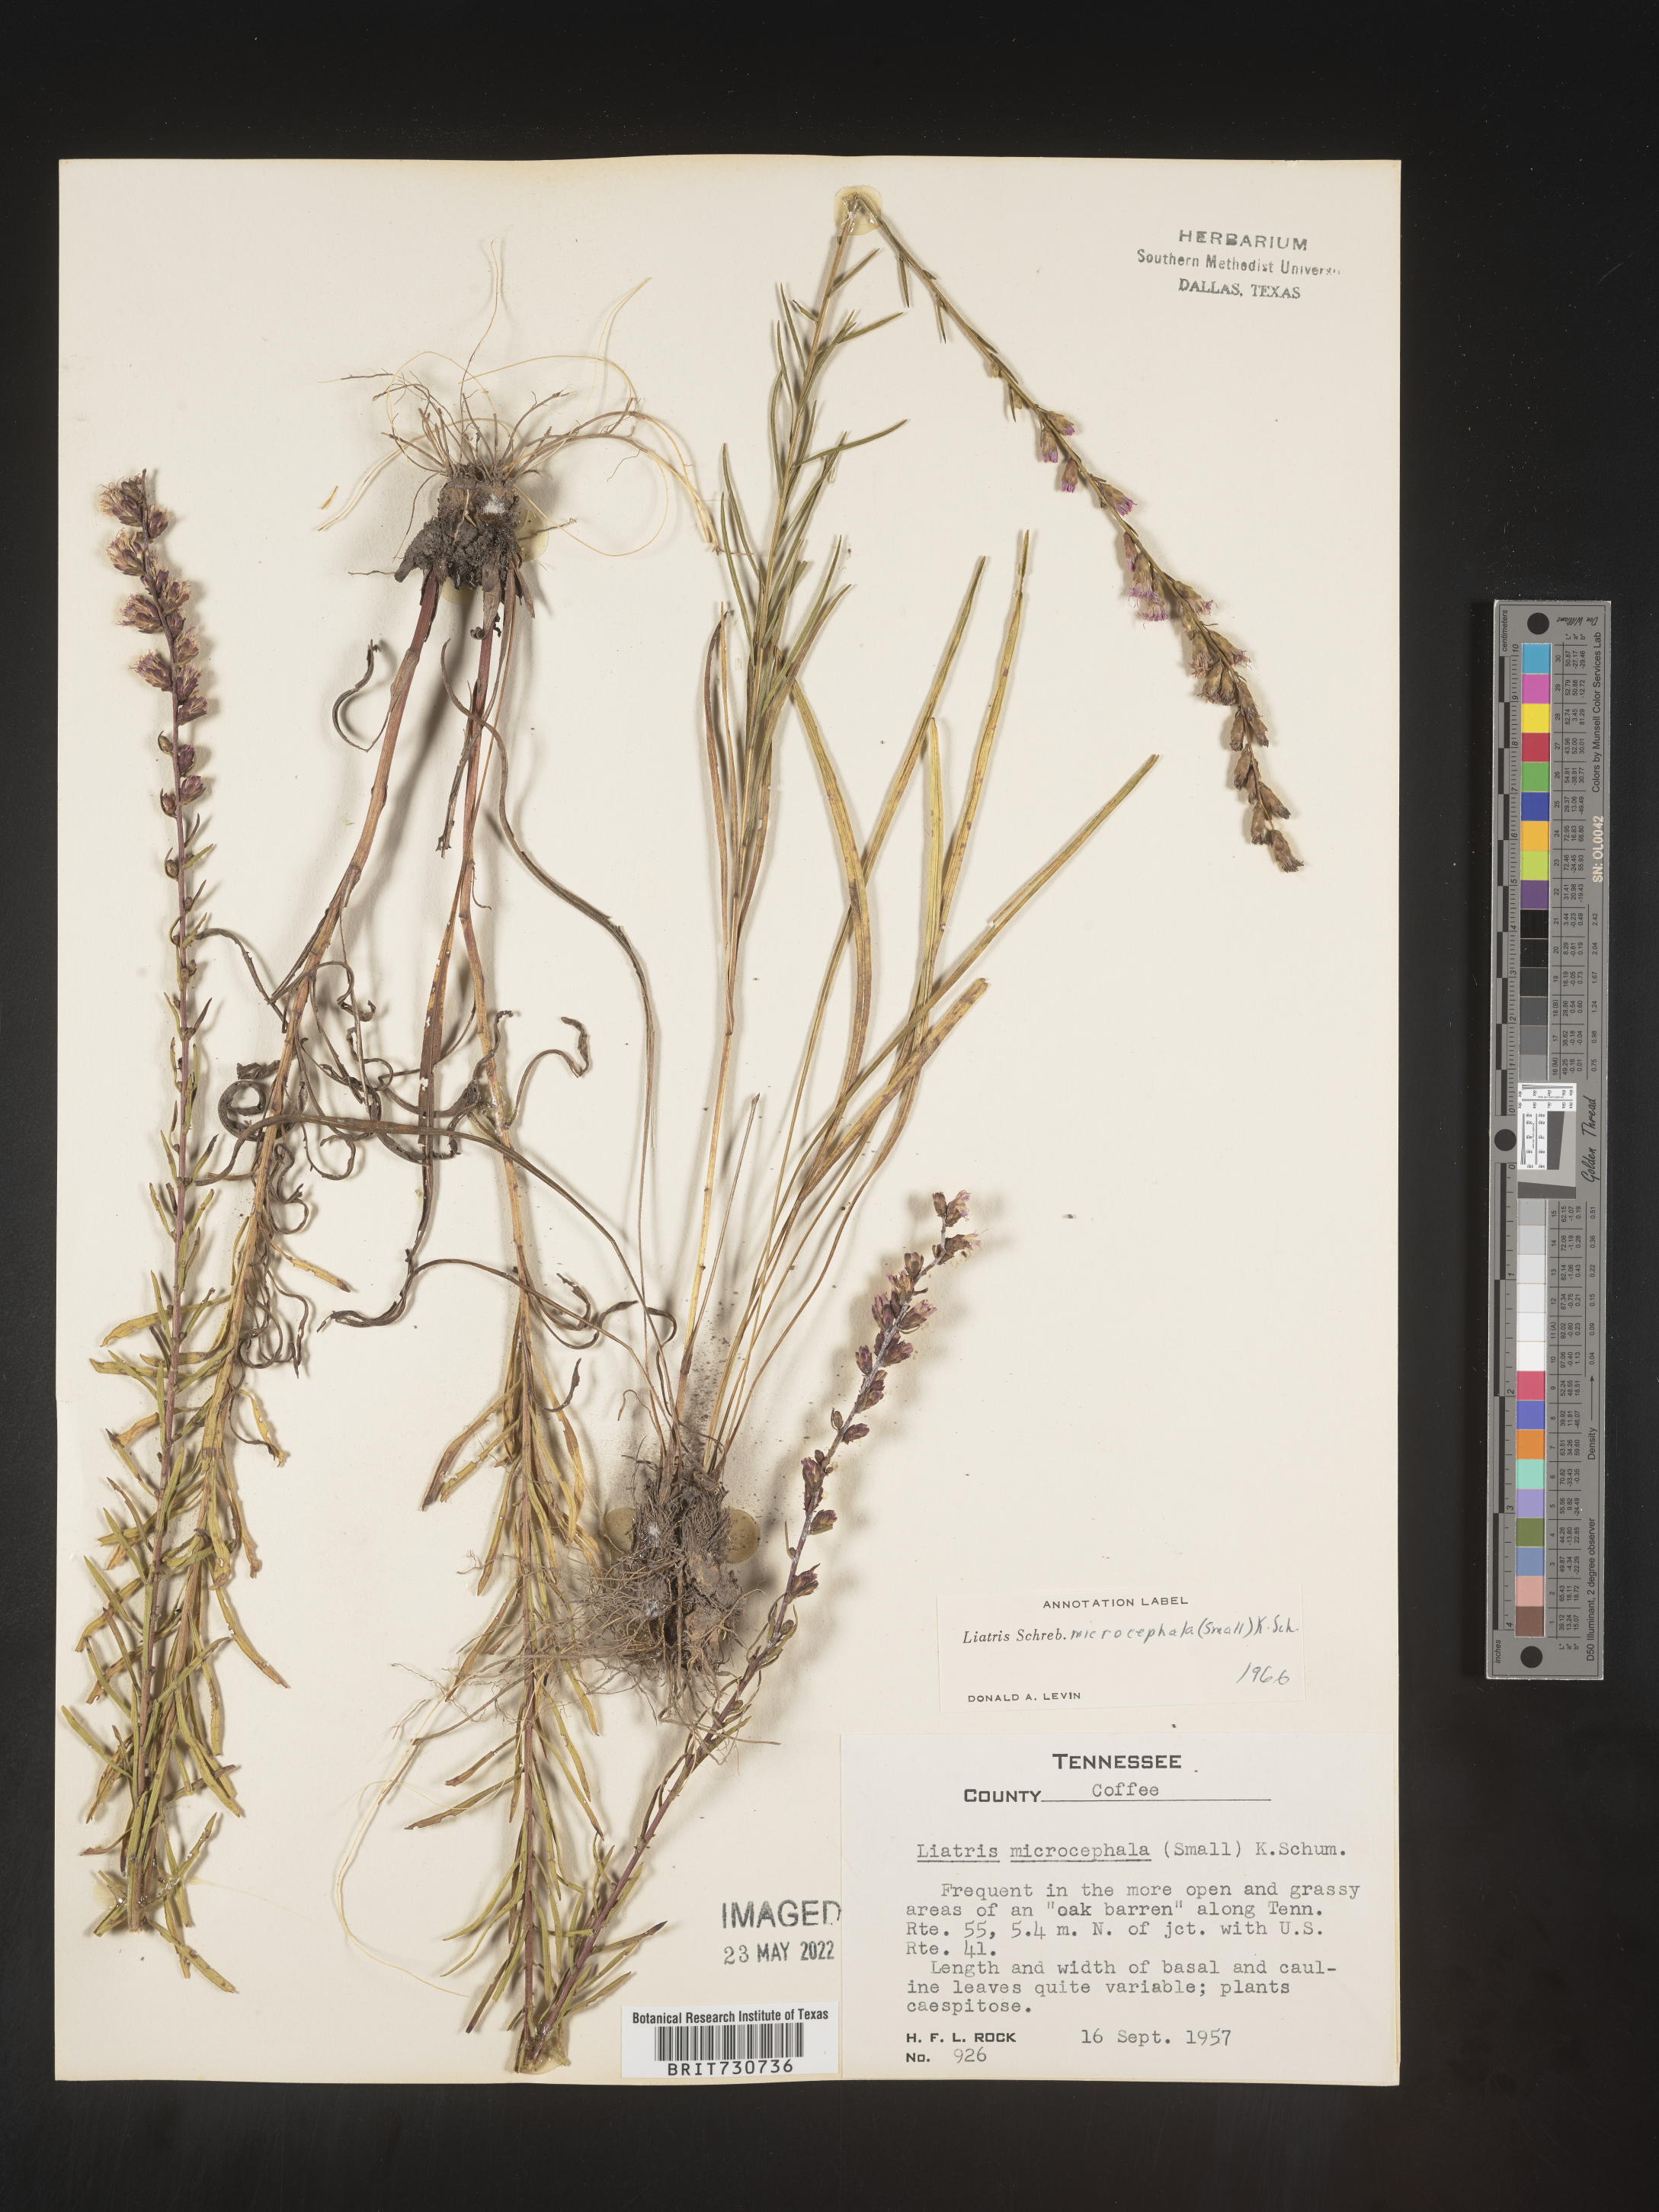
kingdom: Plantae
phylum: Tracheophyta
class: Magnoliopsida
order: Asterales
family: Asteraceae
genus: Liatris
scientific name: Liatris microcephala
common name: Small-head gayfeather
